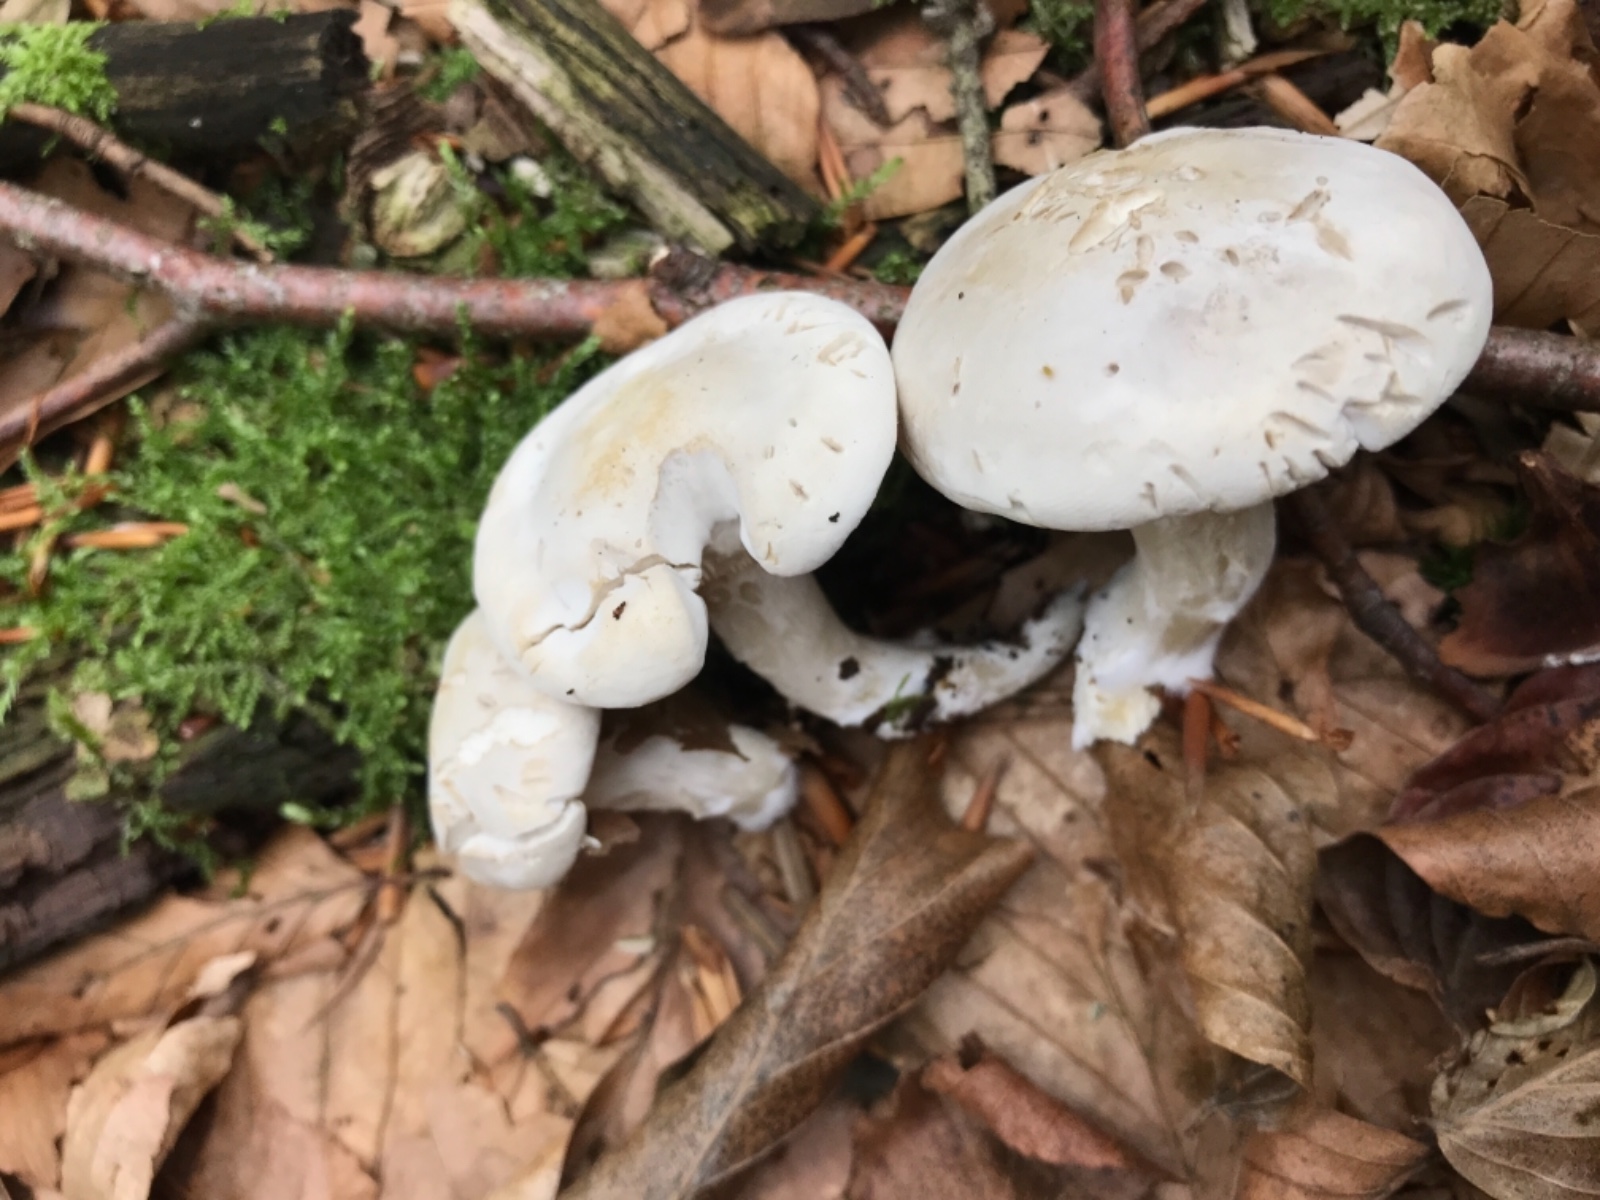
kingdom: Fungi
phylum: Basidiomycota
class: Agaricomycetes
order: Agaricales
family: Entolomataceae
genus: Clitopilus
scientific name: Clitopilus prunulus
